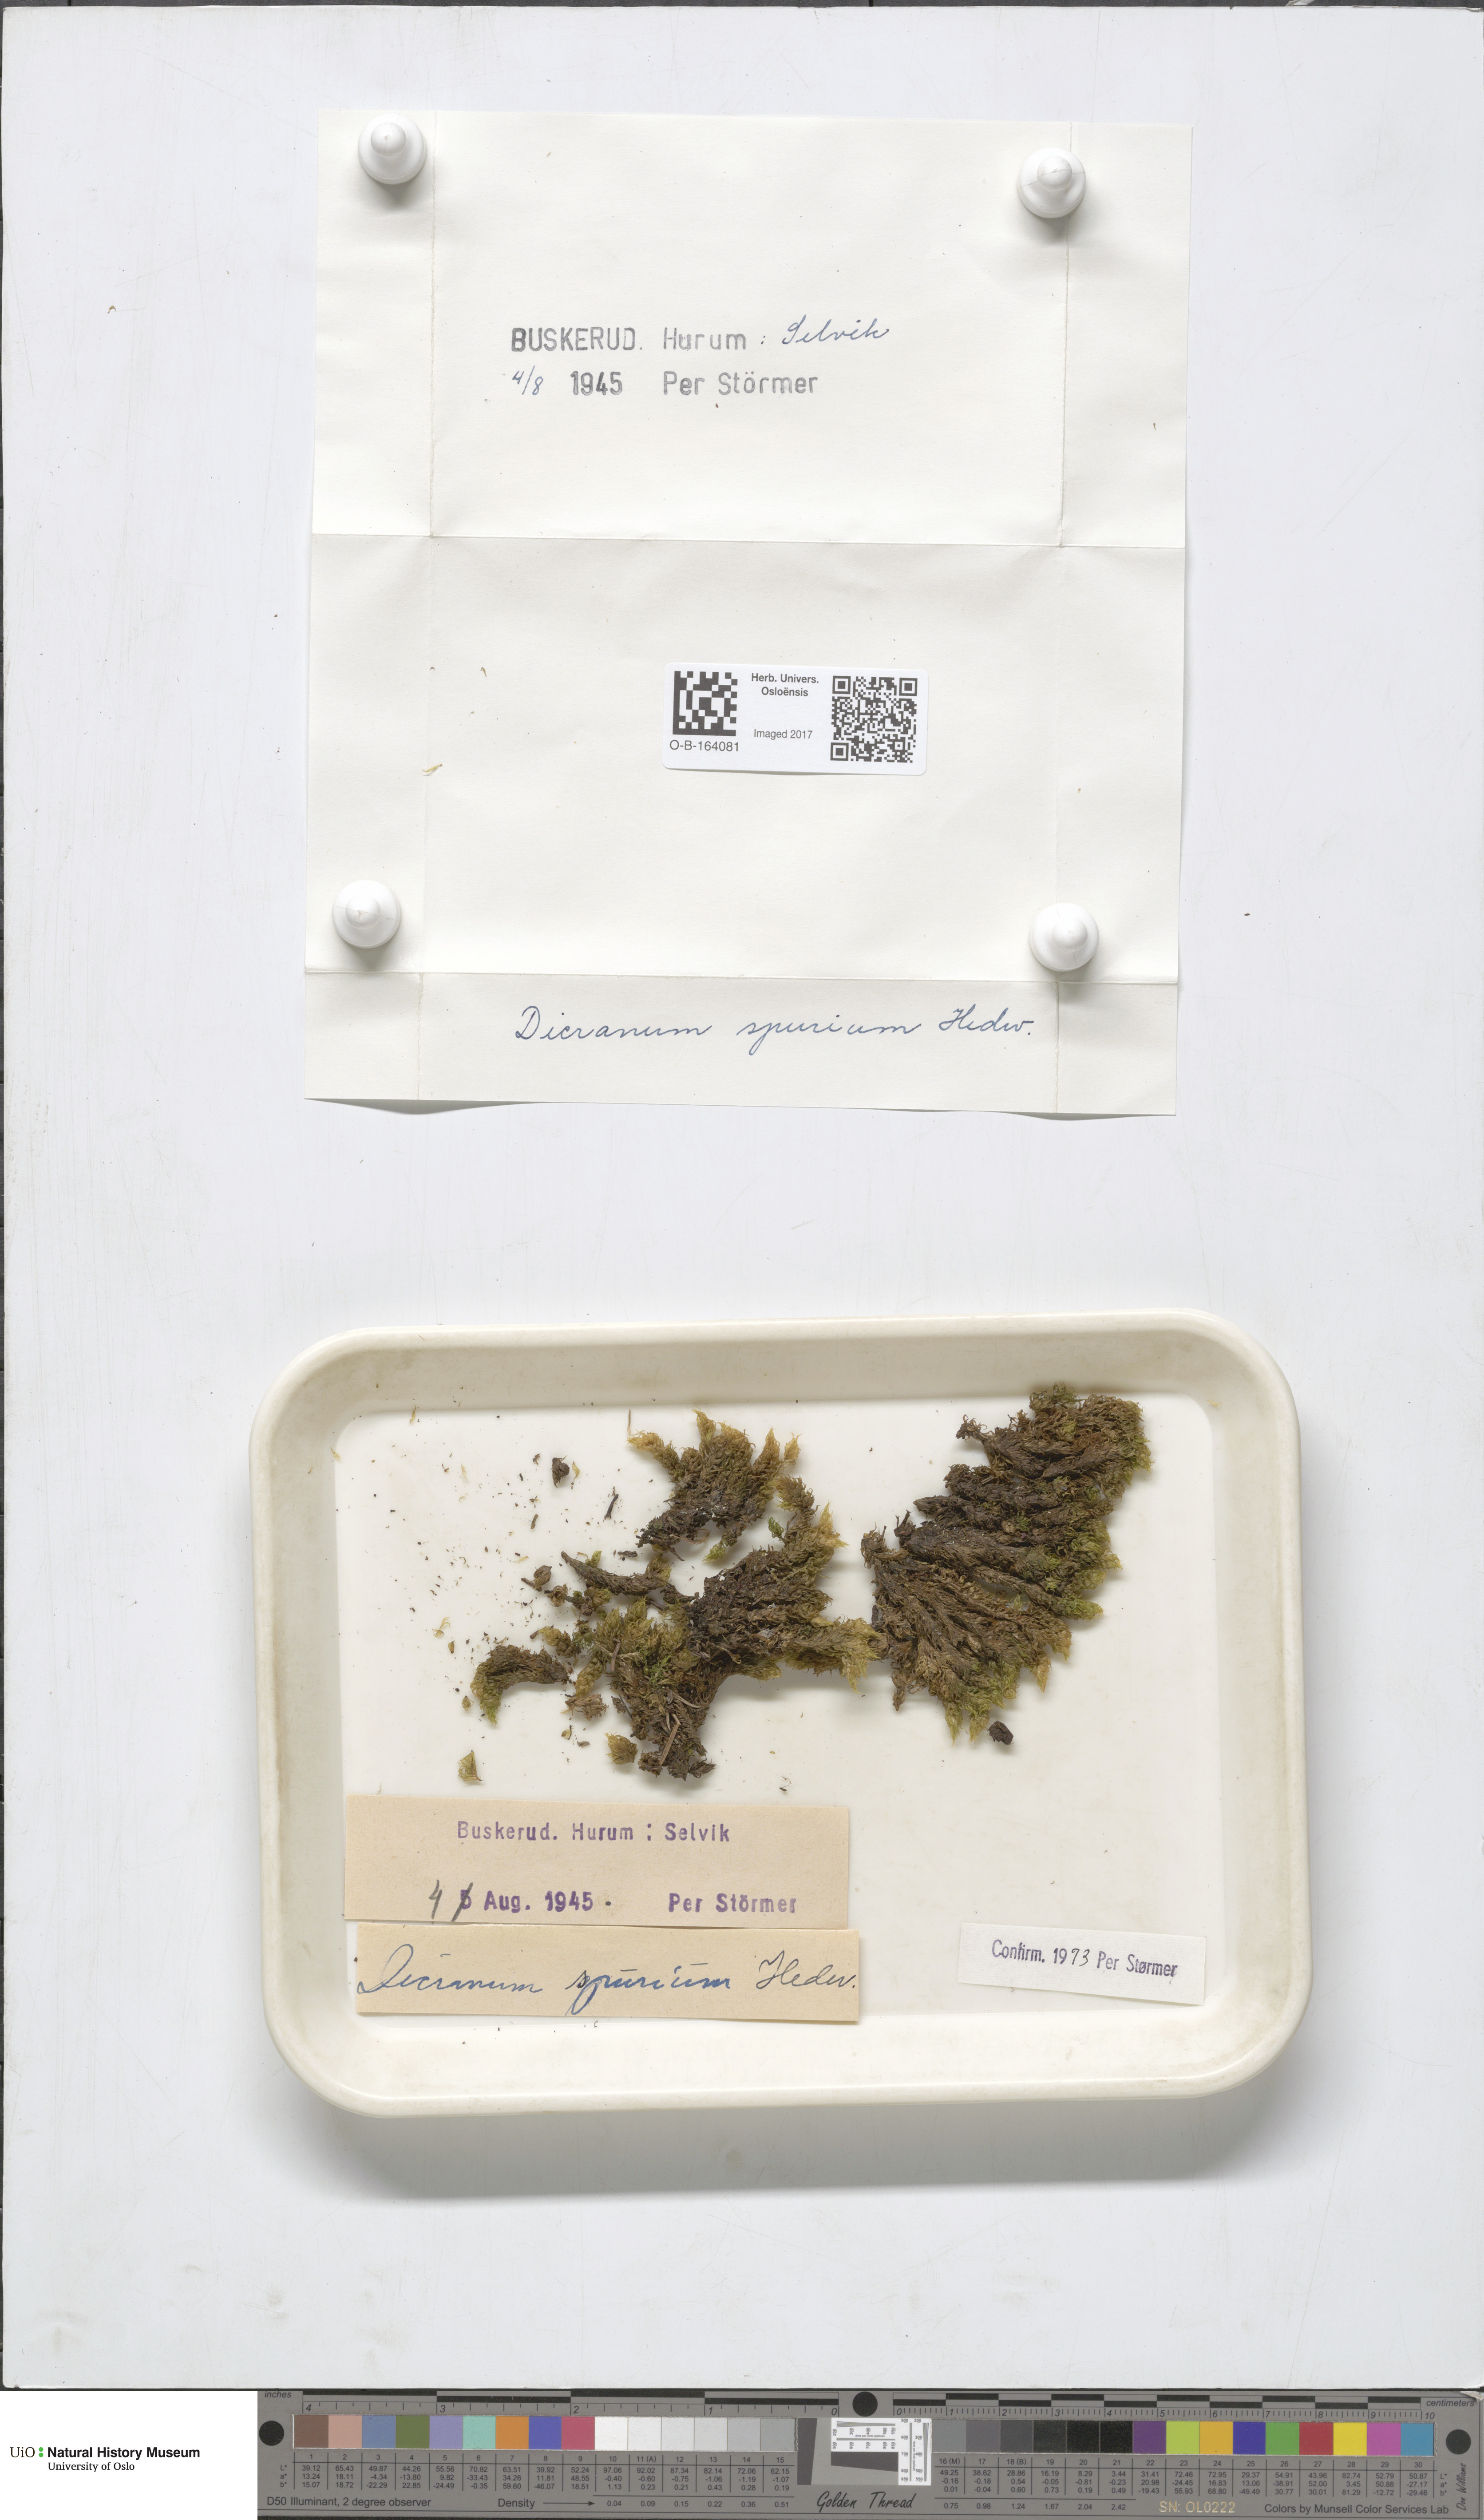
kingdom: Plantae
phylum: Bryophyta
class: Bryopsida
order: Dicranales
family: Dicranaceae
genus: Dicranum
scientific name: Dicranum spurium
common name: Spurred broom moss
